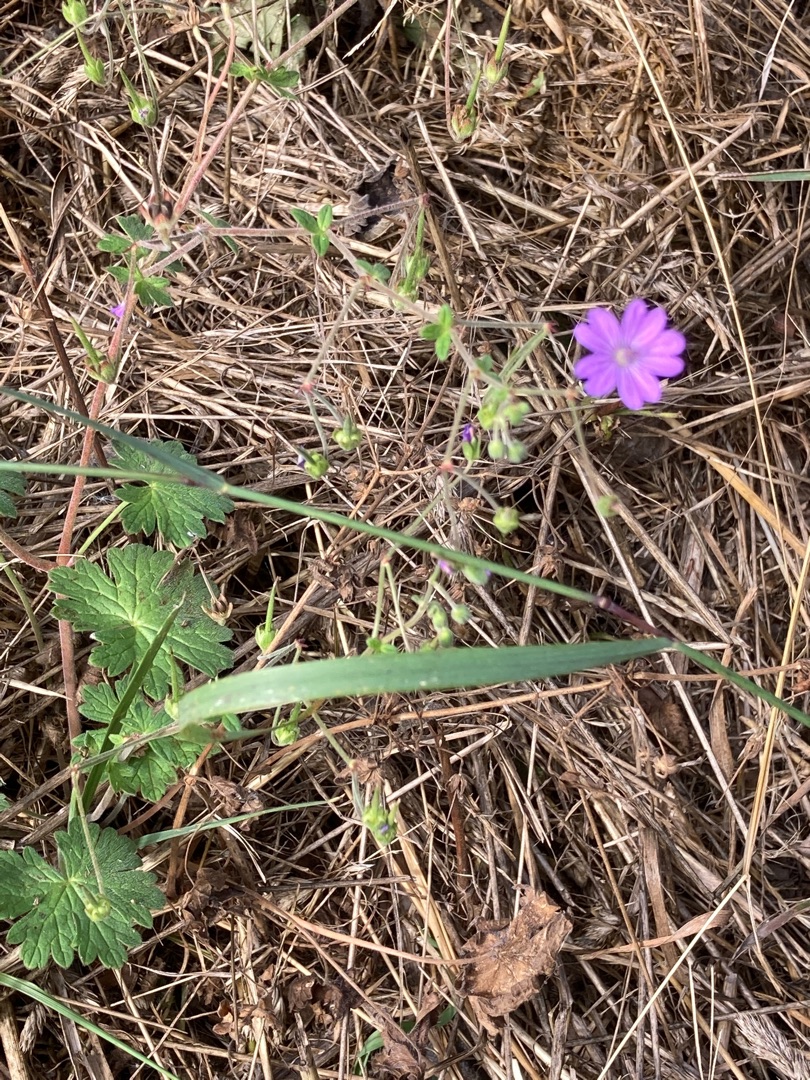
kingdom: Plantae
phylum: Tracheophyta
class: Magnoliopsida
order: Geraniales
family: Geraniaceae
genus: Geranium
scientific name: Geranium pyrenaicum
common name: Pyrenæisk storkenæb
